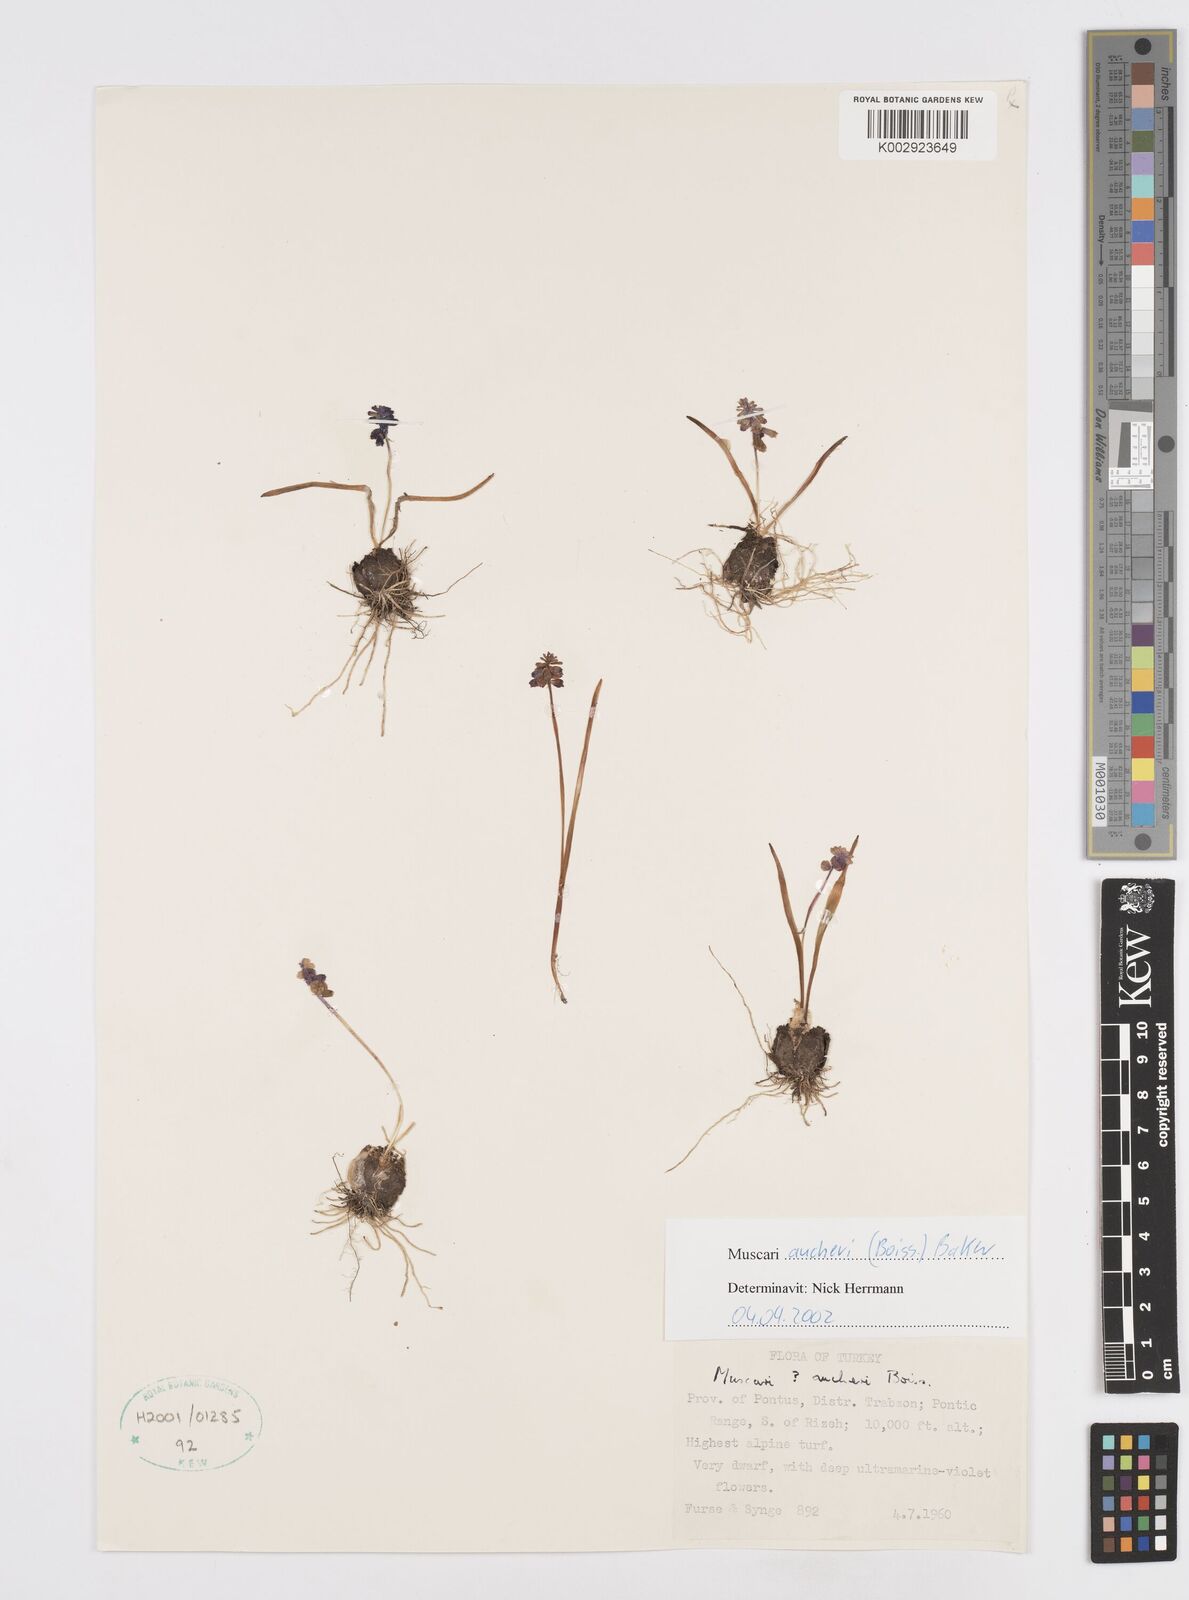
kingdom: Plantae
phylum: Tracheophyta
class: Liliopsida
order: Asparagales
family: Asparagaceae
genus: Muscari
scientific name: Muscari aucheri
